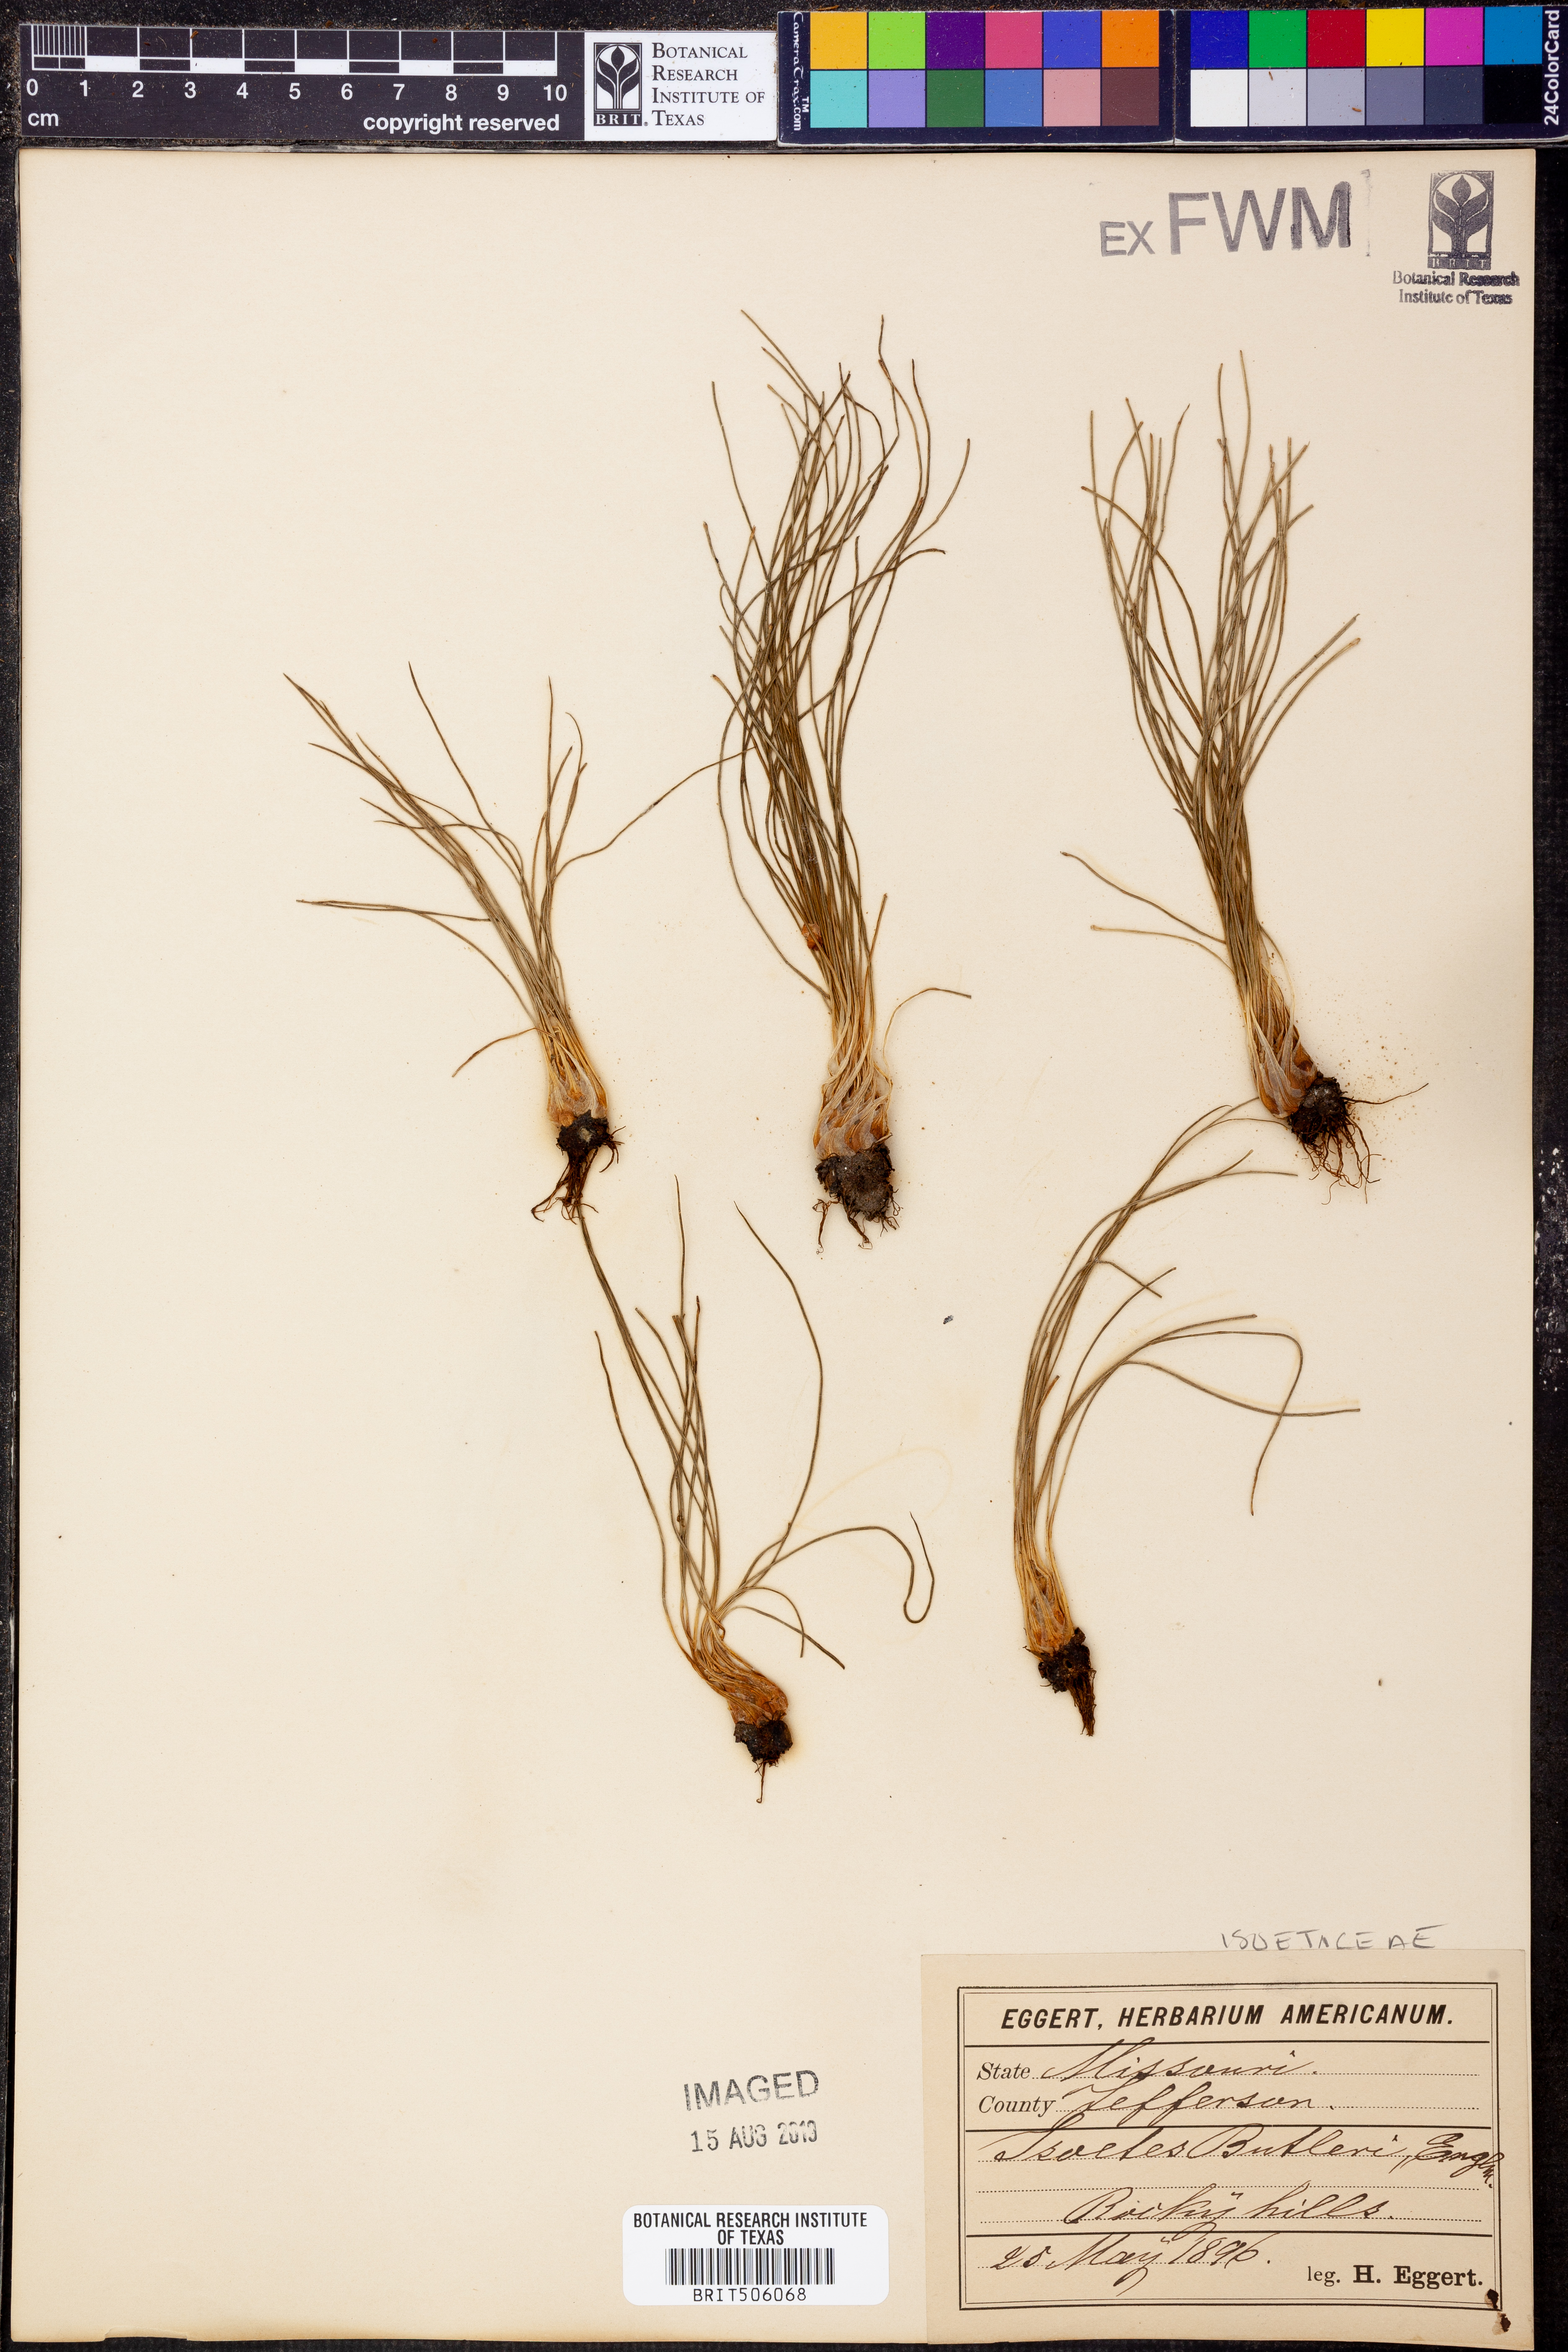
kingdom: Plantae
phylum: Tracheophyta
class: Lycopodiopsida
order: Isoetales
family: Isoetaceae
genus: Isoetes
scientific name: Isoetes butleri
